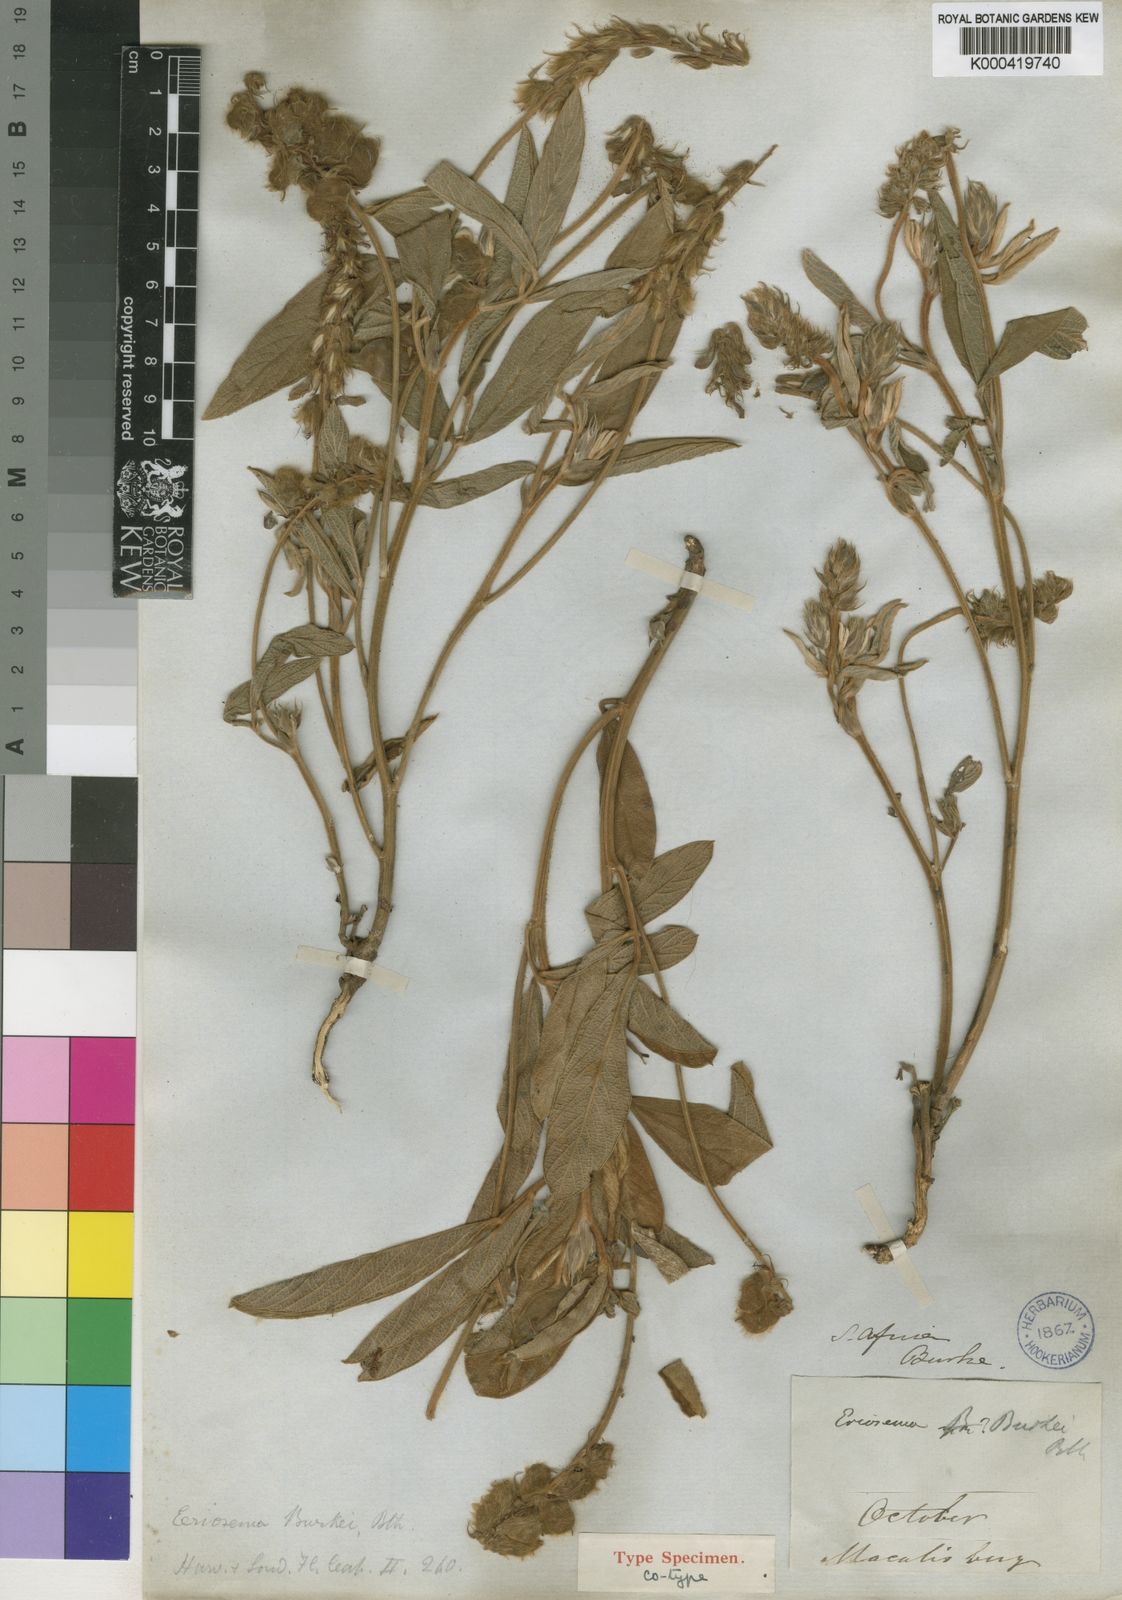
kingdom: Plantae
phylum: Tracheophyta
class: Magnoliopsida
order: Fabales
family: Fabaceae
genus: Eriosema
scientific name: Eriosema
